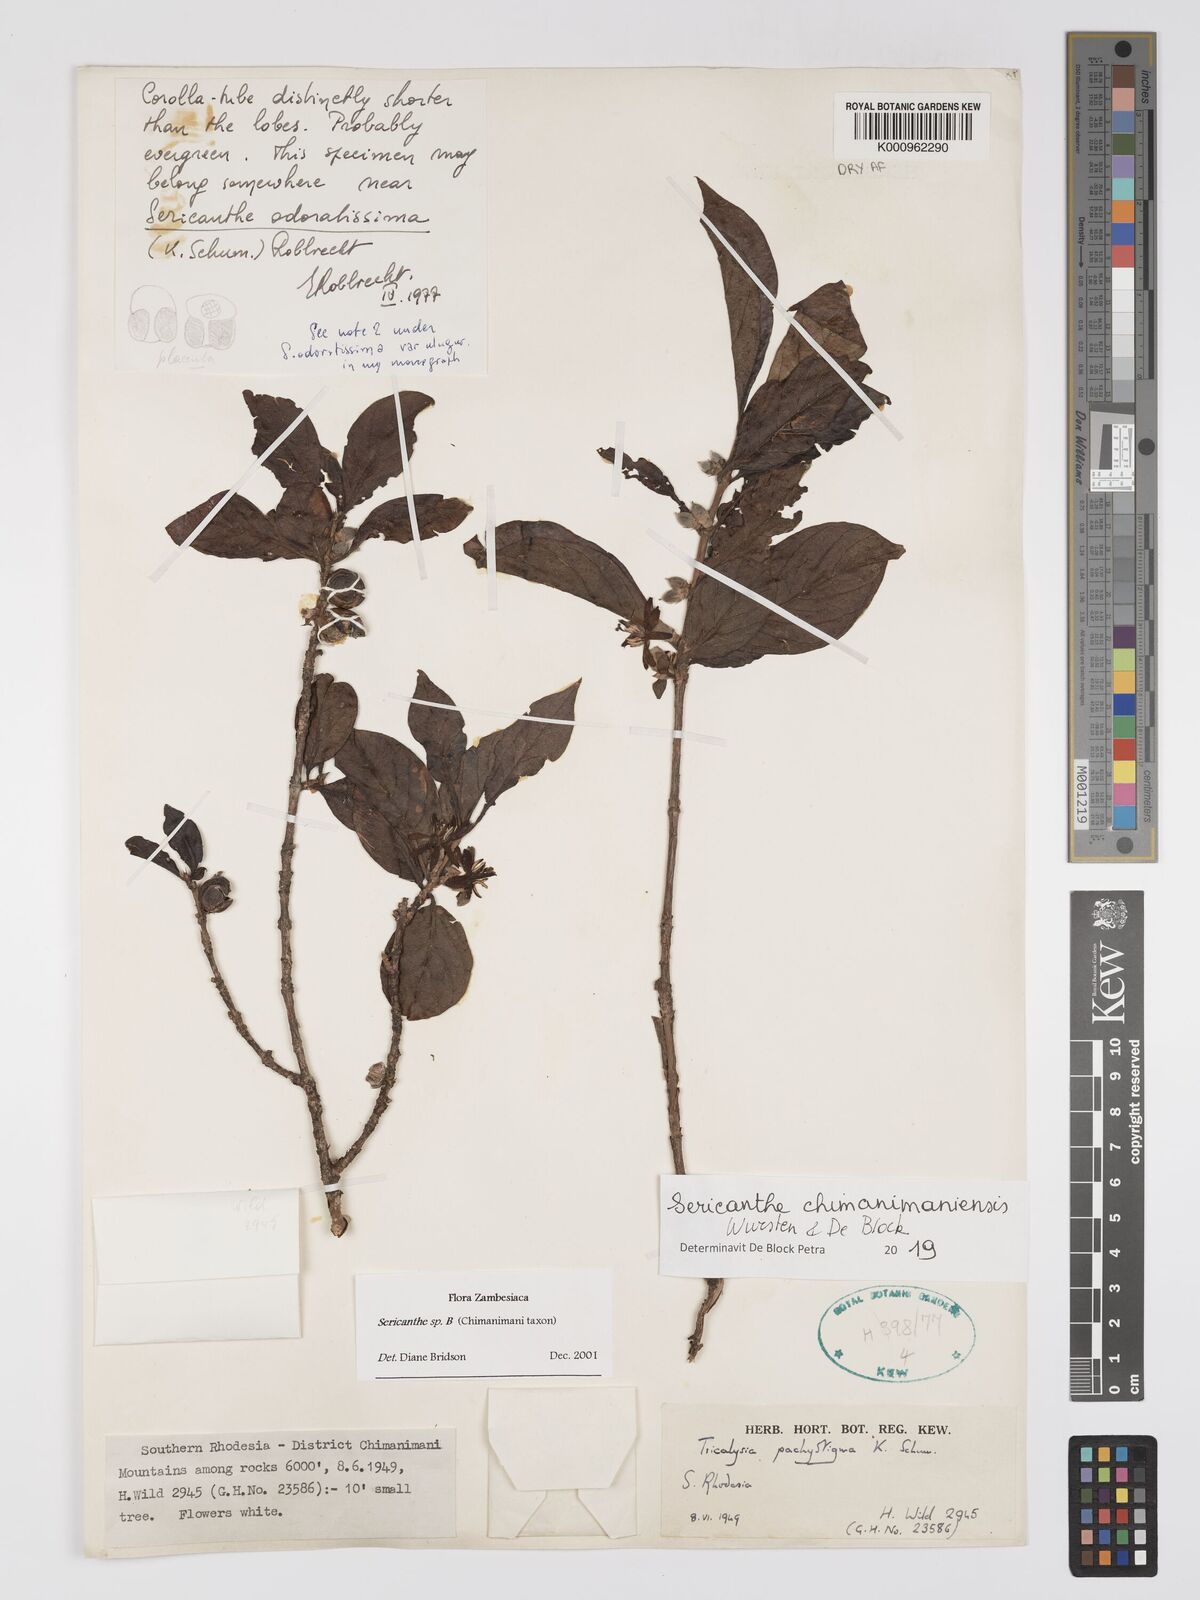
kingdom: Plantae
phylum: Tracheophyta
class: Magnoliopsida
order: Gentianales
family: Rubiaceae
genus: Sericanthe
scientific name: Sericanthe
